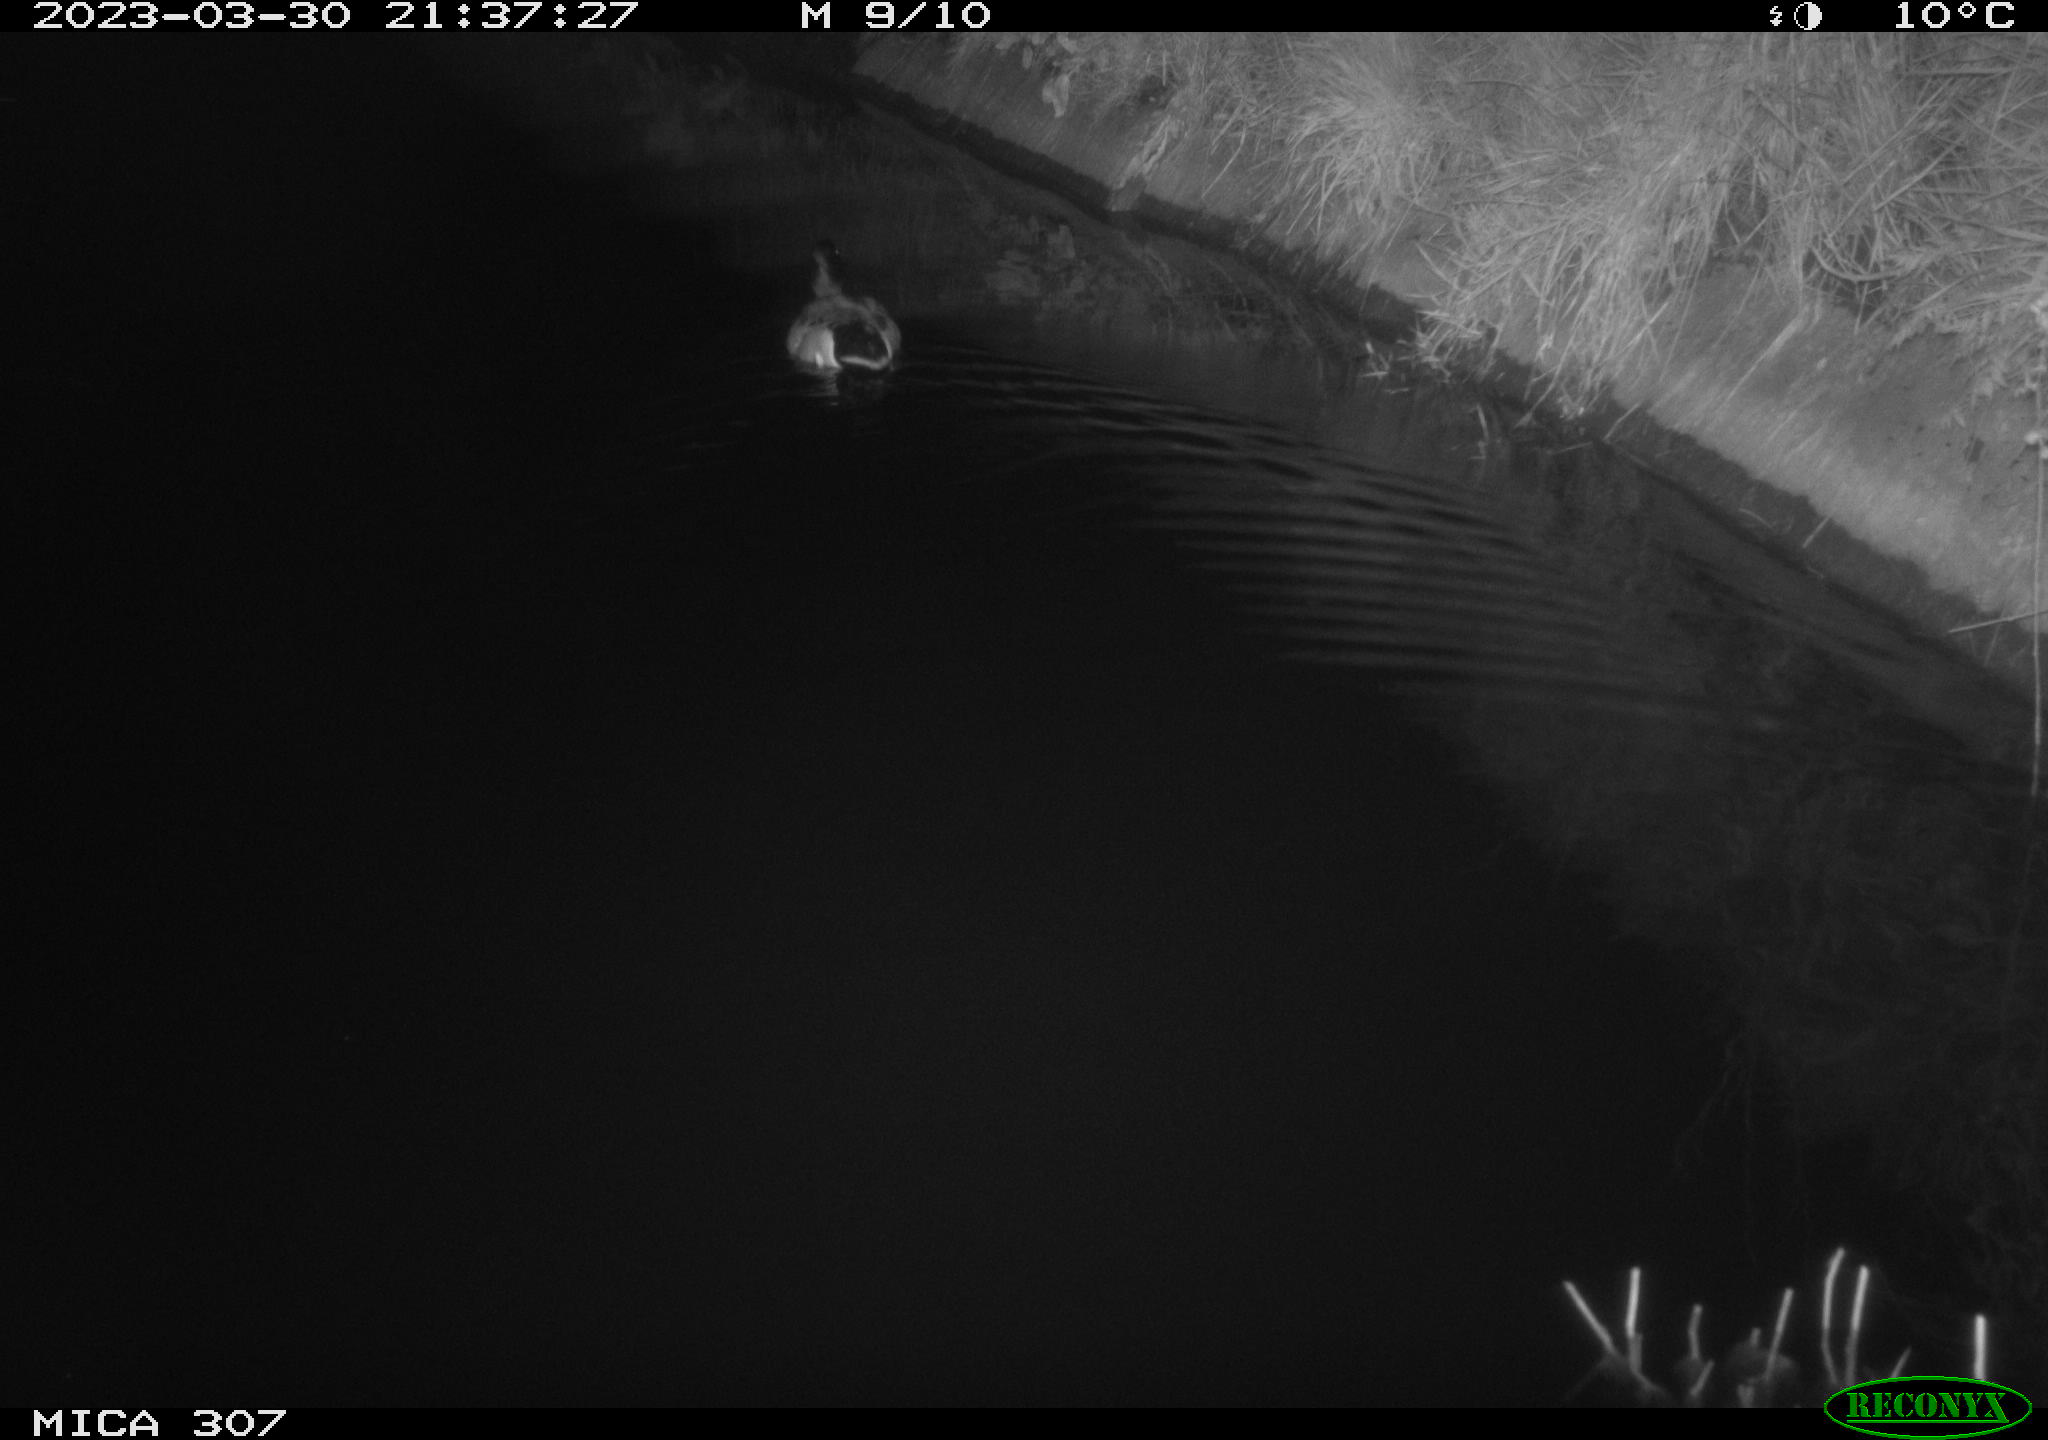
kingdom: Animalia
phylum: Chordata
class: Aves
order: Anseriformes
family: Anatidae
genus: Anas
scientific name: Anas
